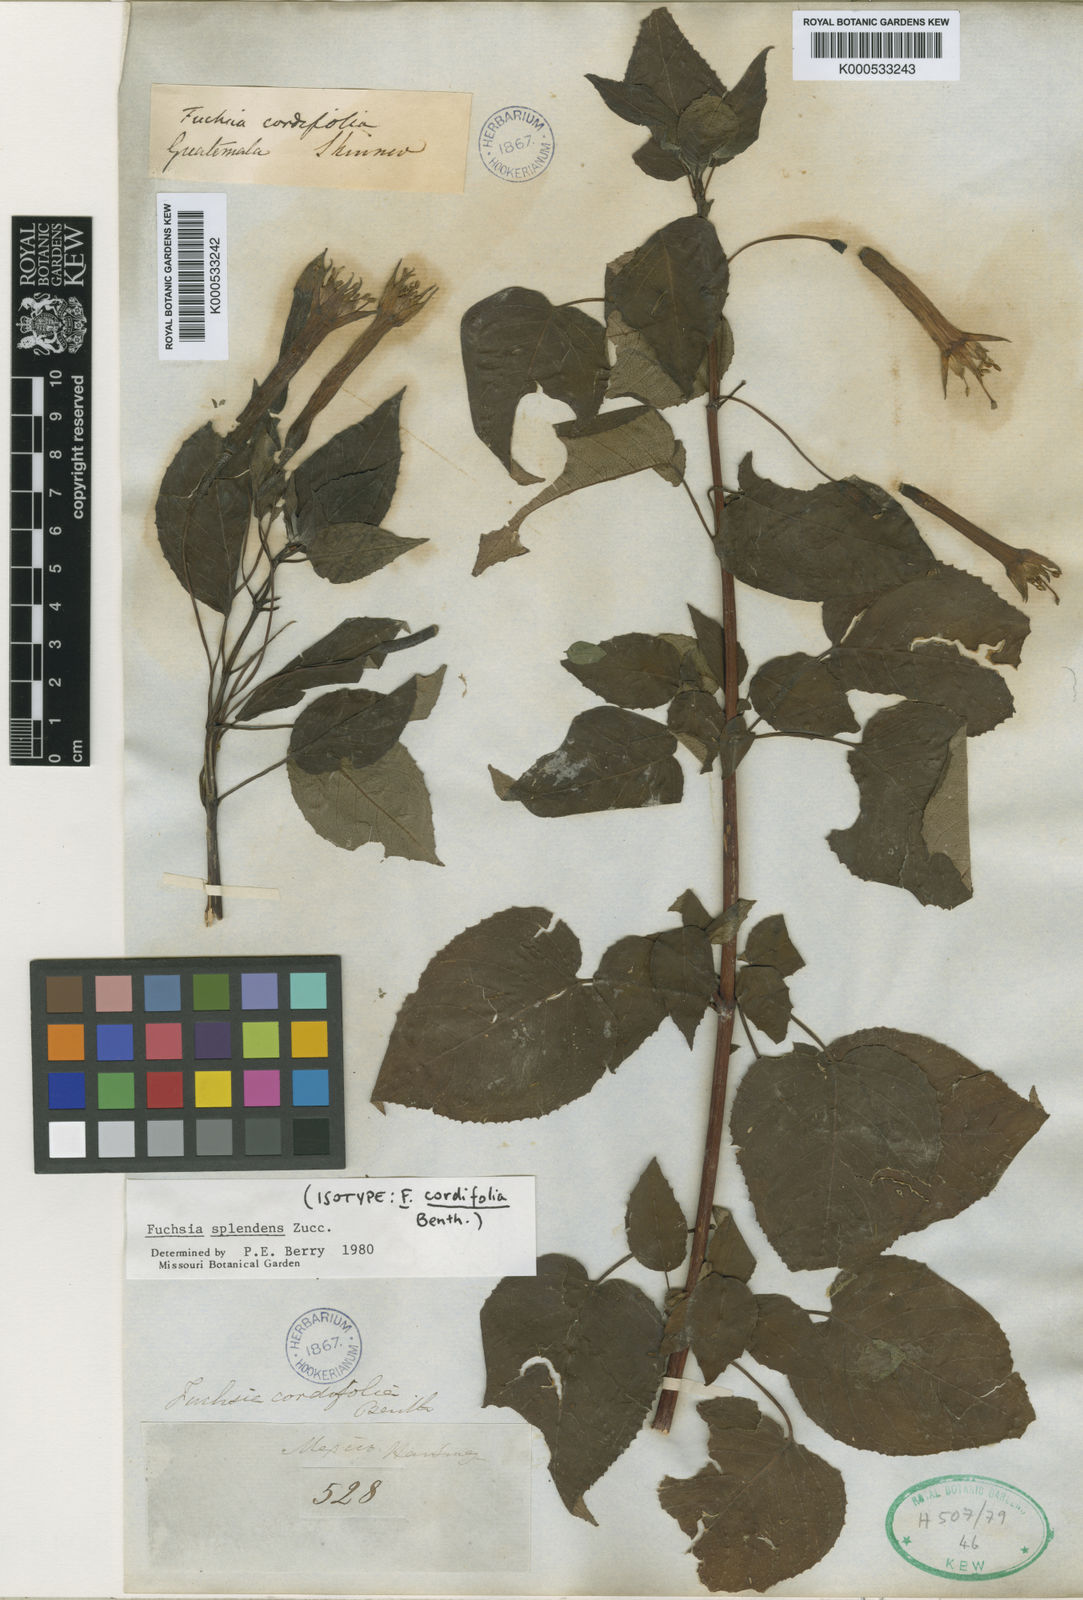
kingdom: Plantae
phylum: Tracheophyta
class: Magnoliopsida
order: Myrtales
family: Onagraceae
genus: Fuchsia
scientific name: Fuchsia splendens
